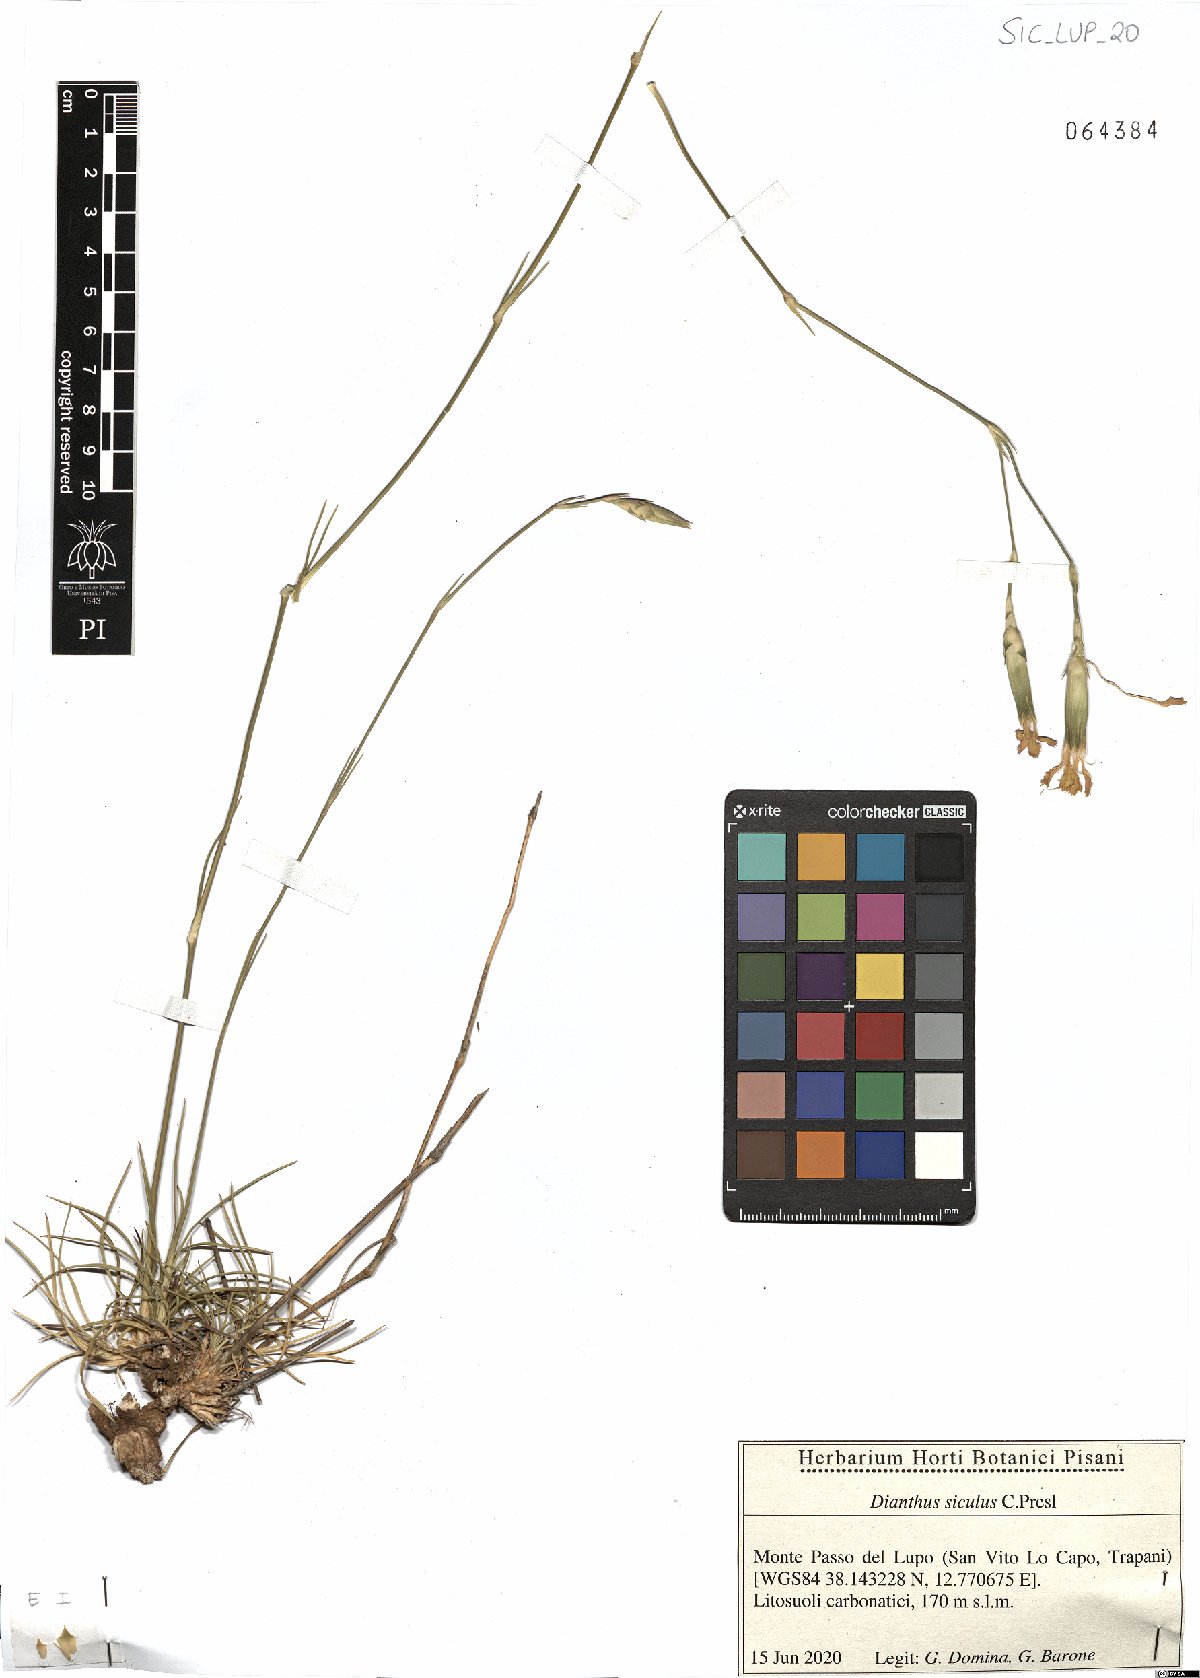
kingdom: Plantae
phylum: Tracheophyta
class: Magnoliopsida
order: Caryophyllales
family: Caryophyllaceae
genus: Dianthus
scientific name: Dianthus siculus
